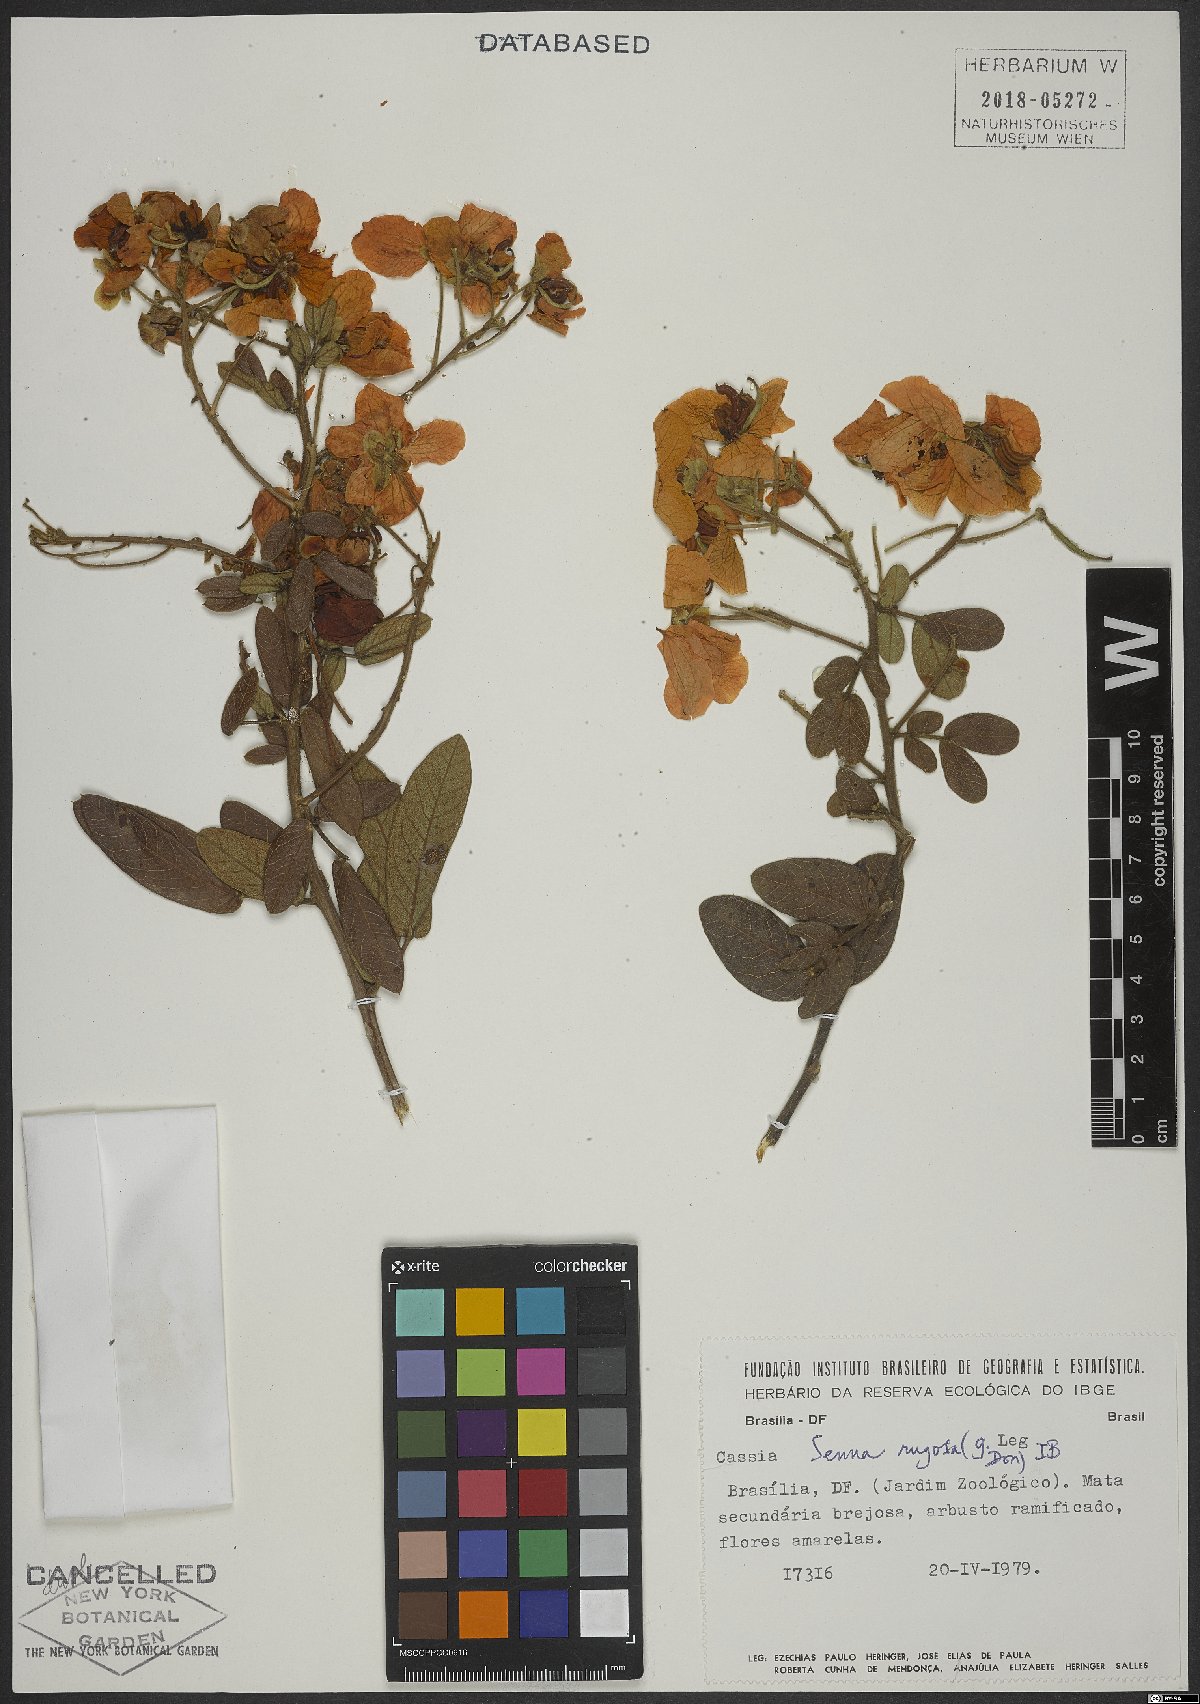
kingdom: Plantae
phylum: Tracheophyta
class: Magnoliopsida
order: Fabales
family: Fabaceae
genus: Senna
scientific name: Senna rugosa
